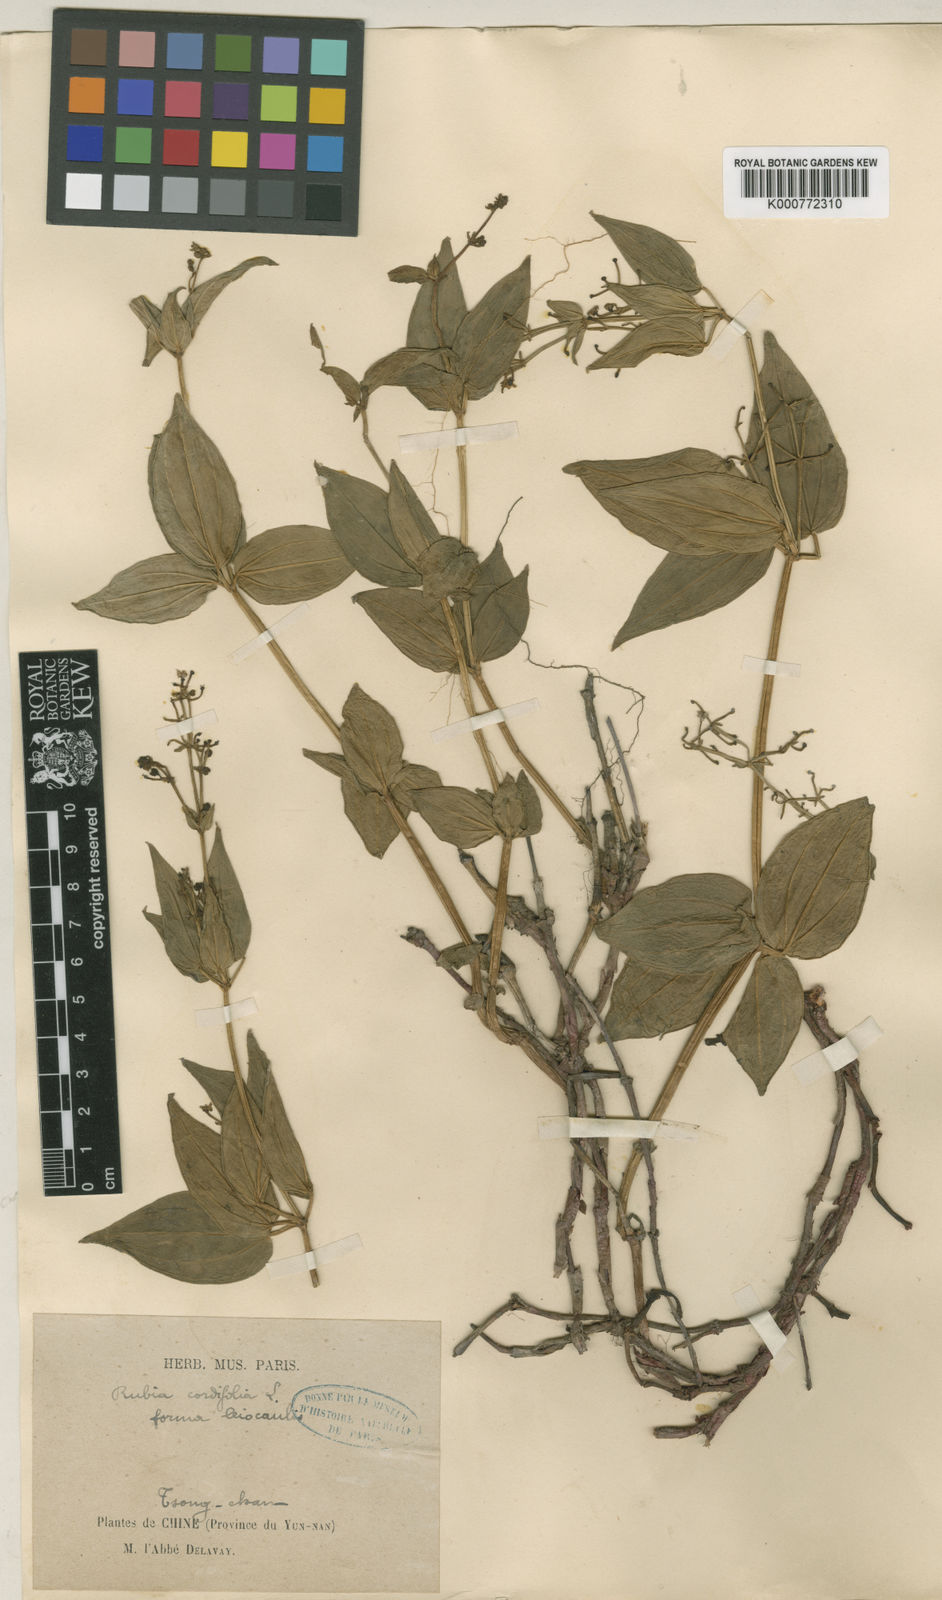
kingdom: Plantae
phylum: Tracheophyta
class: Magnoliopsida
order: Gentianales
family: Rubiaceae
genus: Rubia
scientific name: Rubia schumanniana
